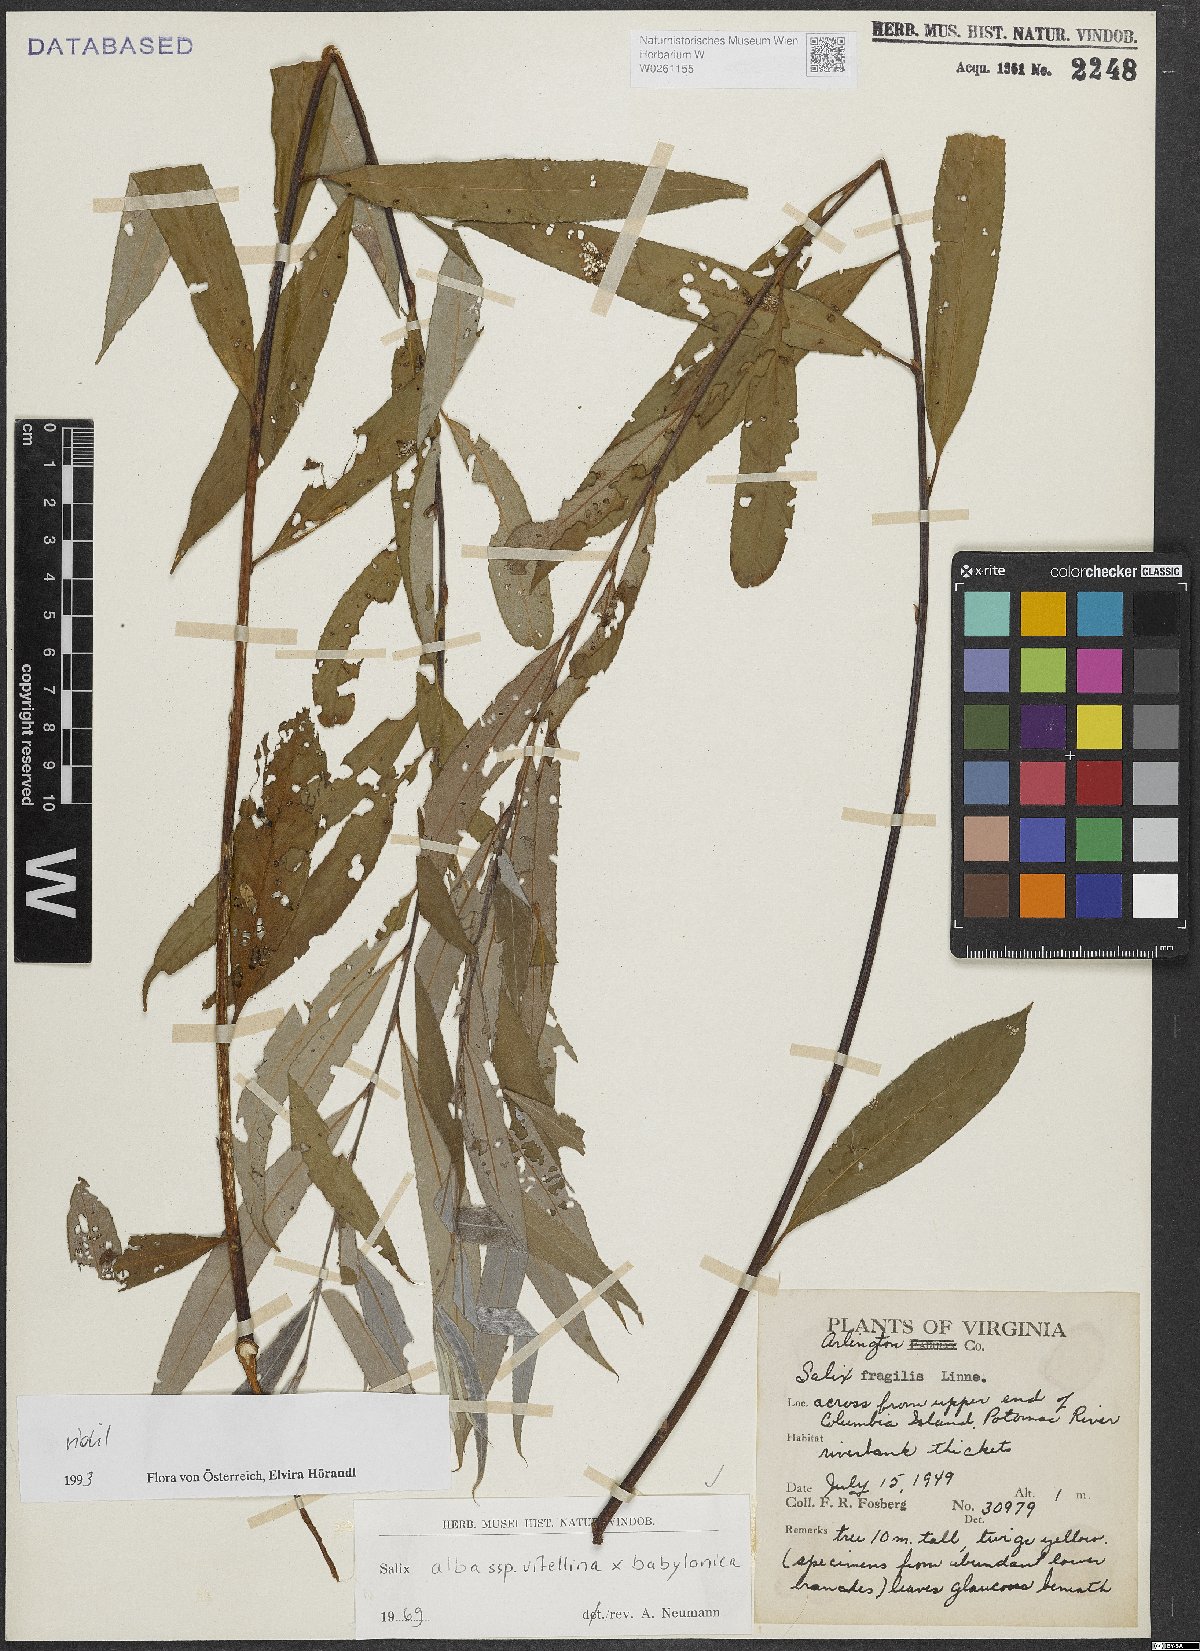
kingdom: Plantae
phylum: Tracheophyta
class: Magnoliopsida
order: Malpighiales
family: Salicaceae
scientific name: Salicaceae
